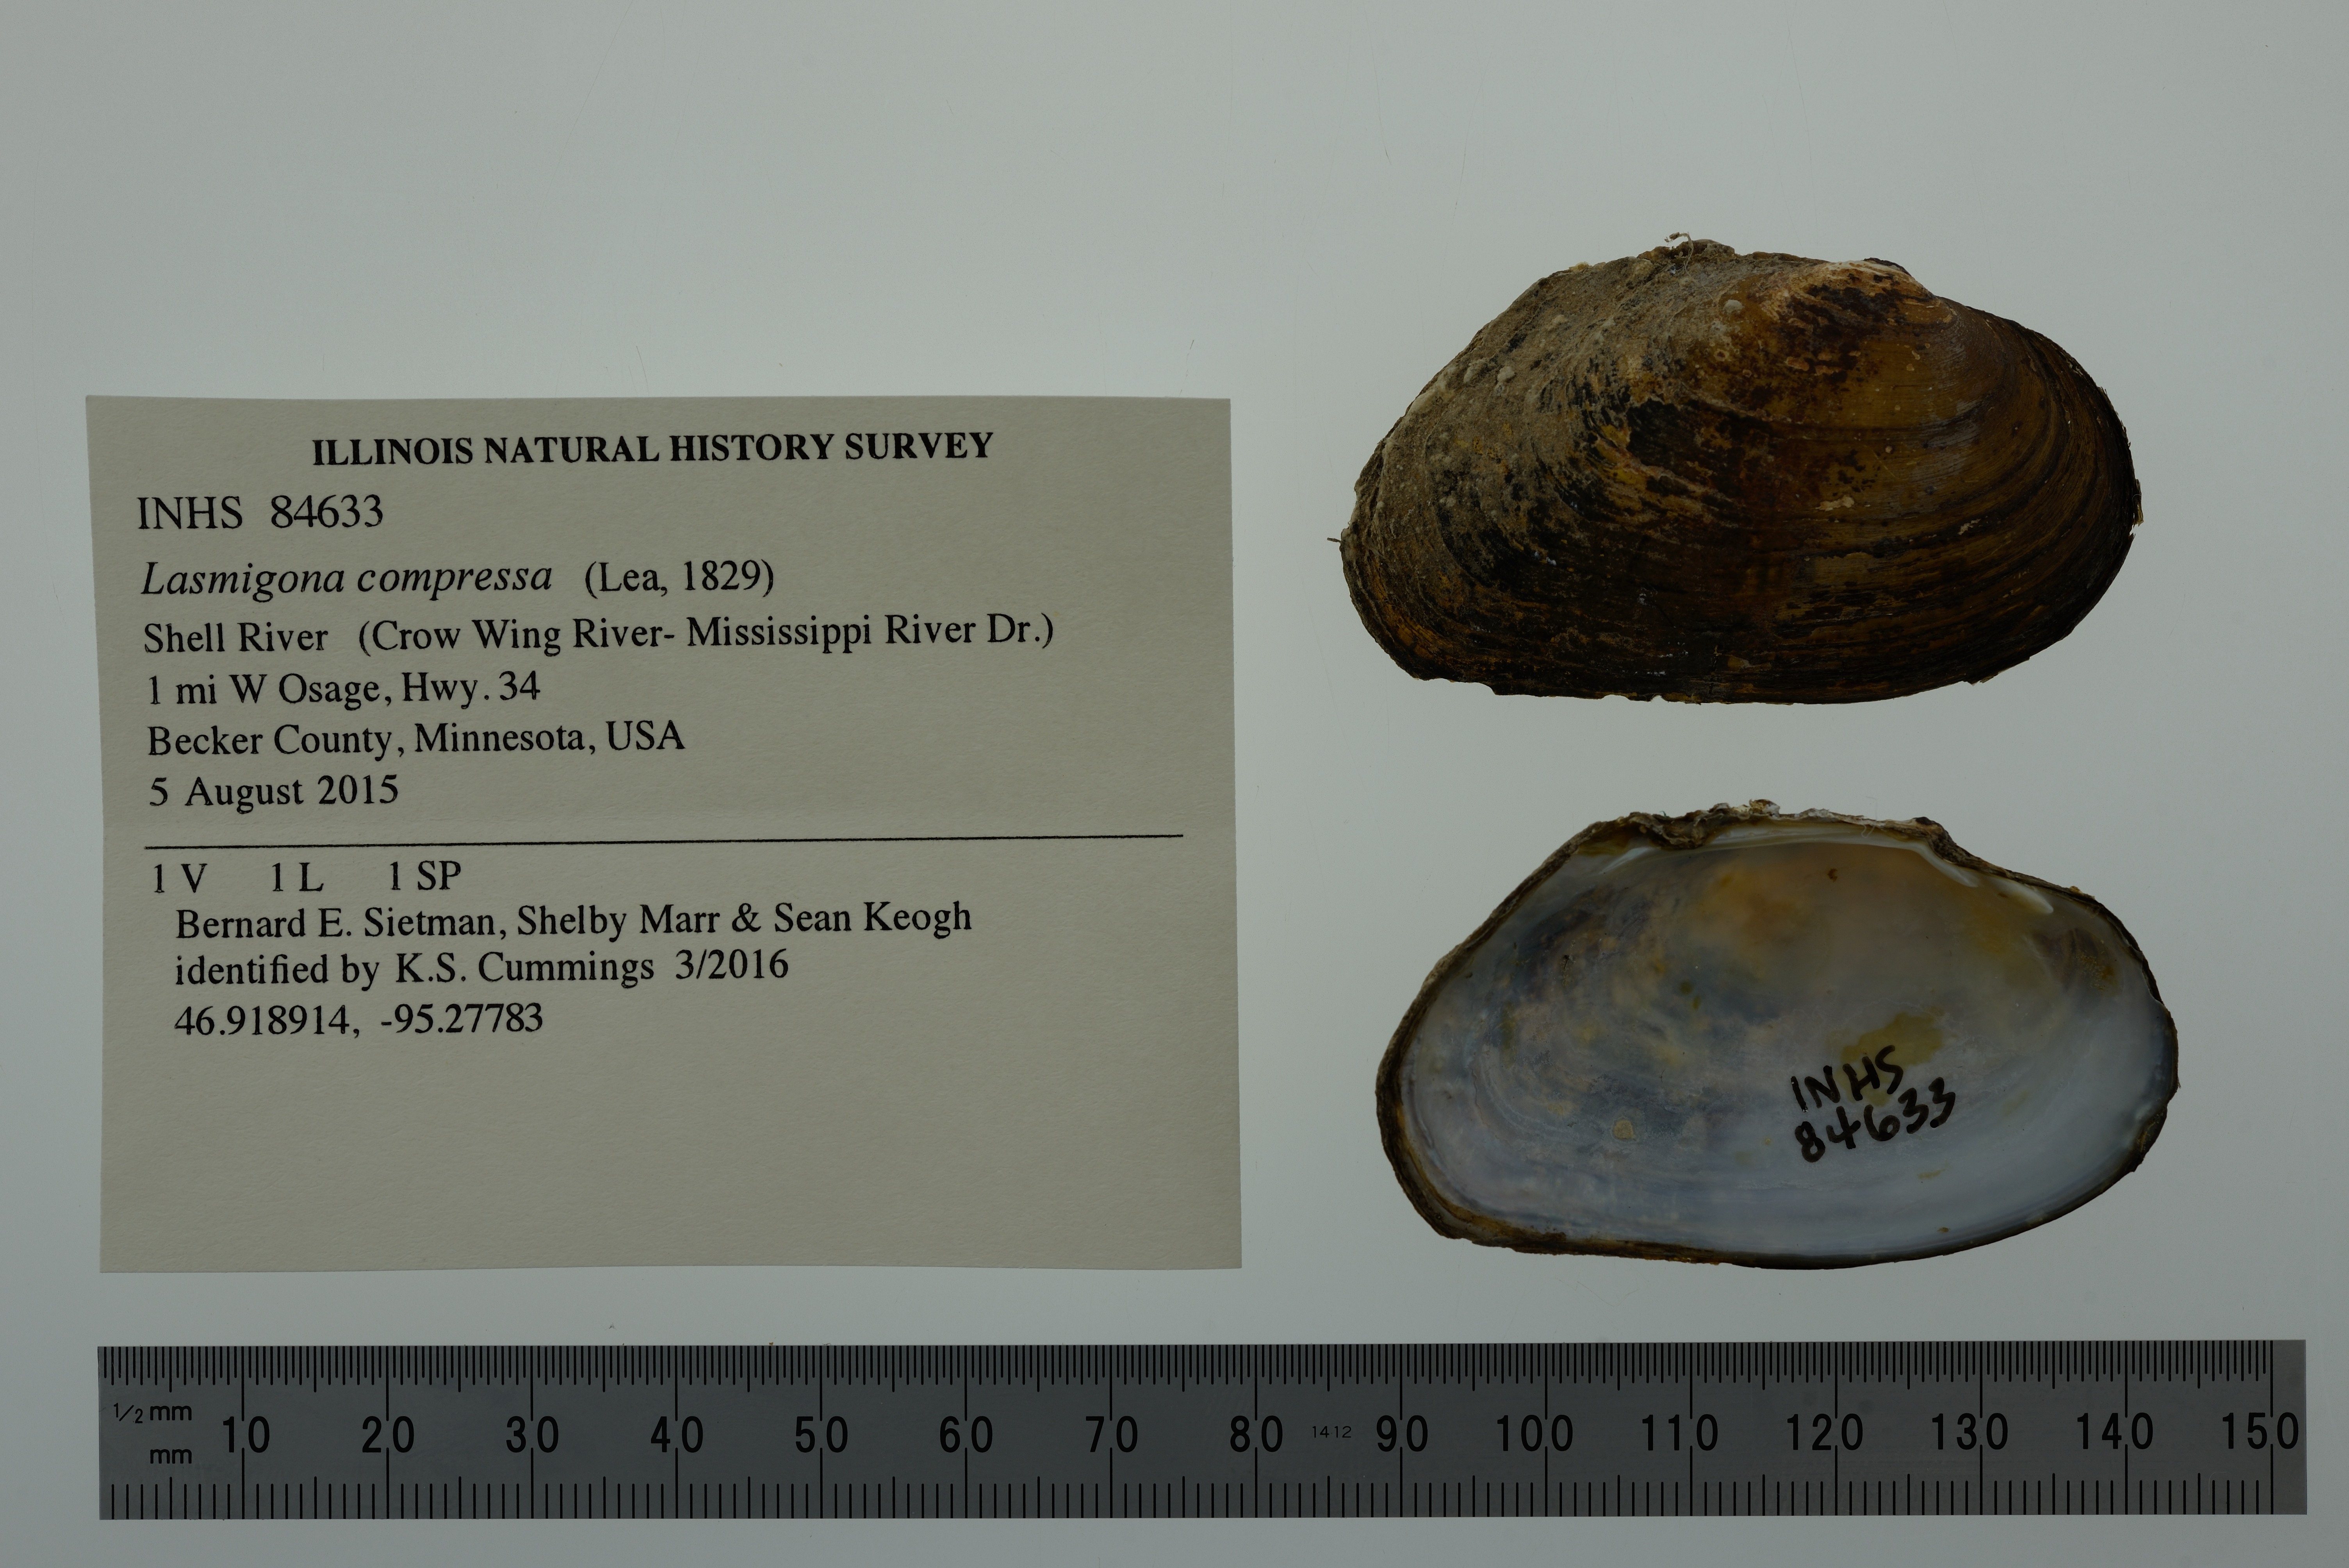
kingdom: Animalia
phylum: Mollusca
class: Bivalvia
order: Unionida
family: Unionidae
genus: Lasmigona
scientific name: Lasmigona compressa
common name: Creek heelsplitter
